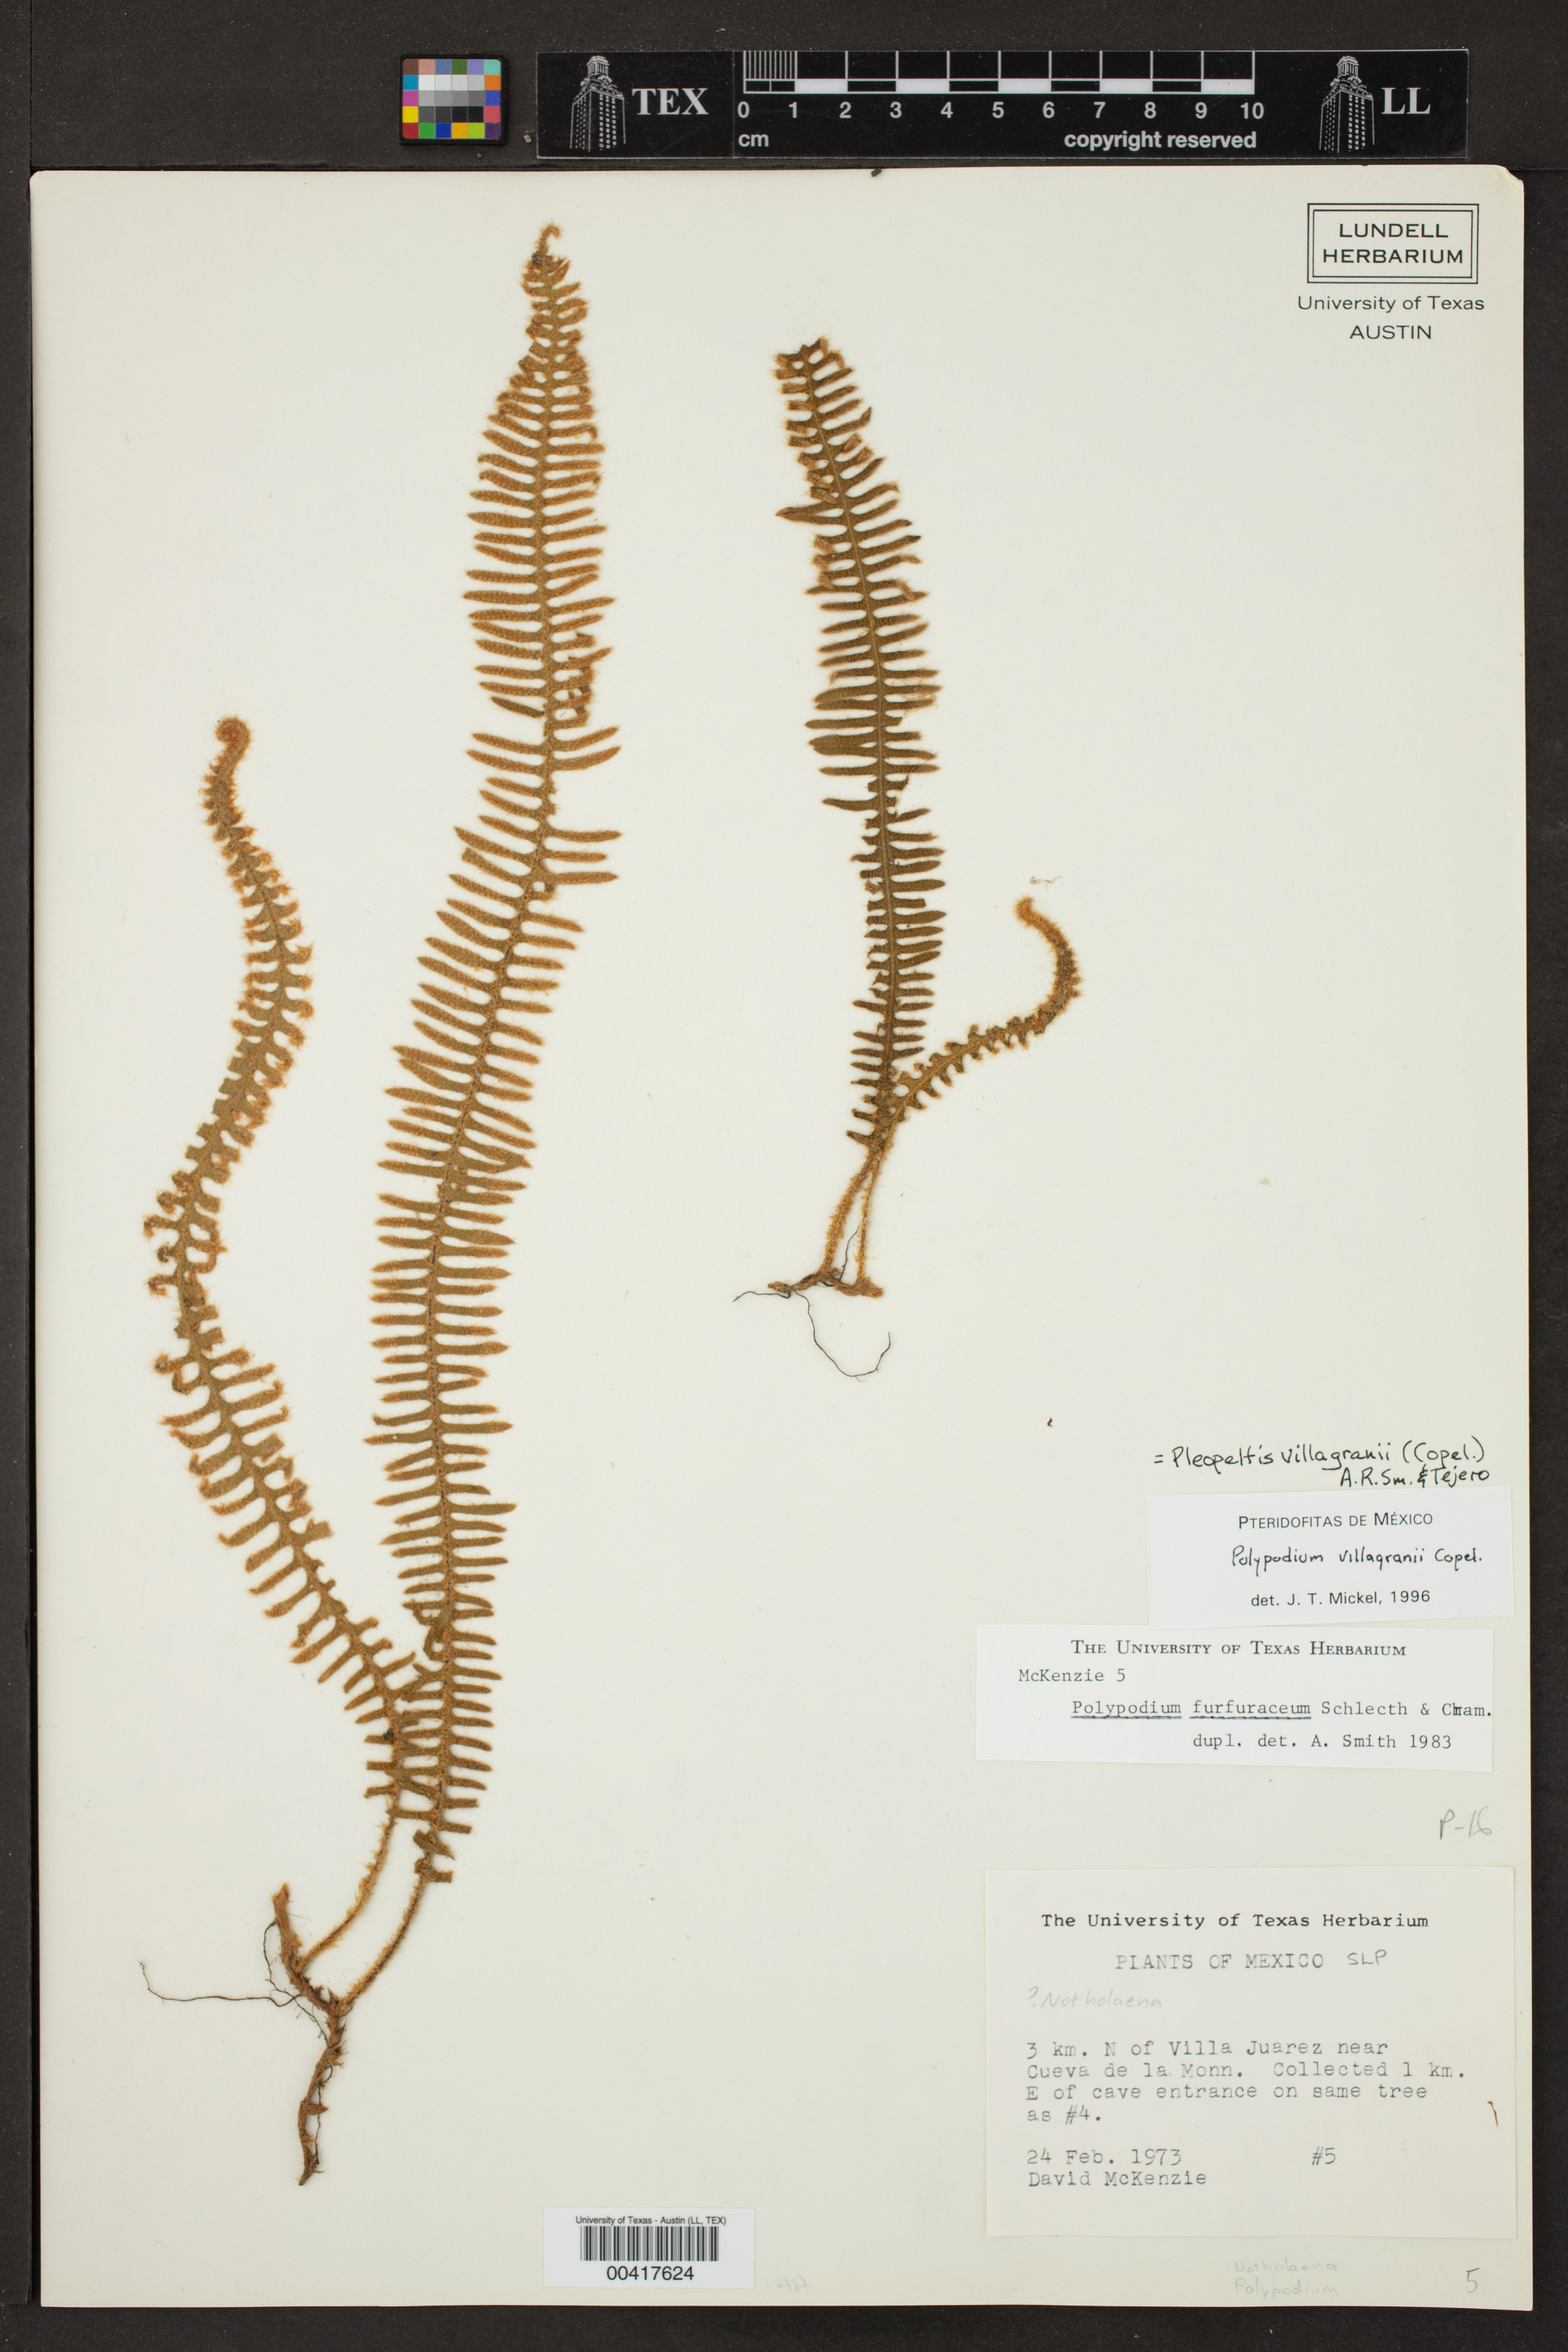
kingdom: Plantae
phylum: Tracheophyta
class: Polypodiopsida
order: Polypodiales
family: Polypodiaceae
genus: Pleopeltis
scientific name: Pleopeltis villagranii
